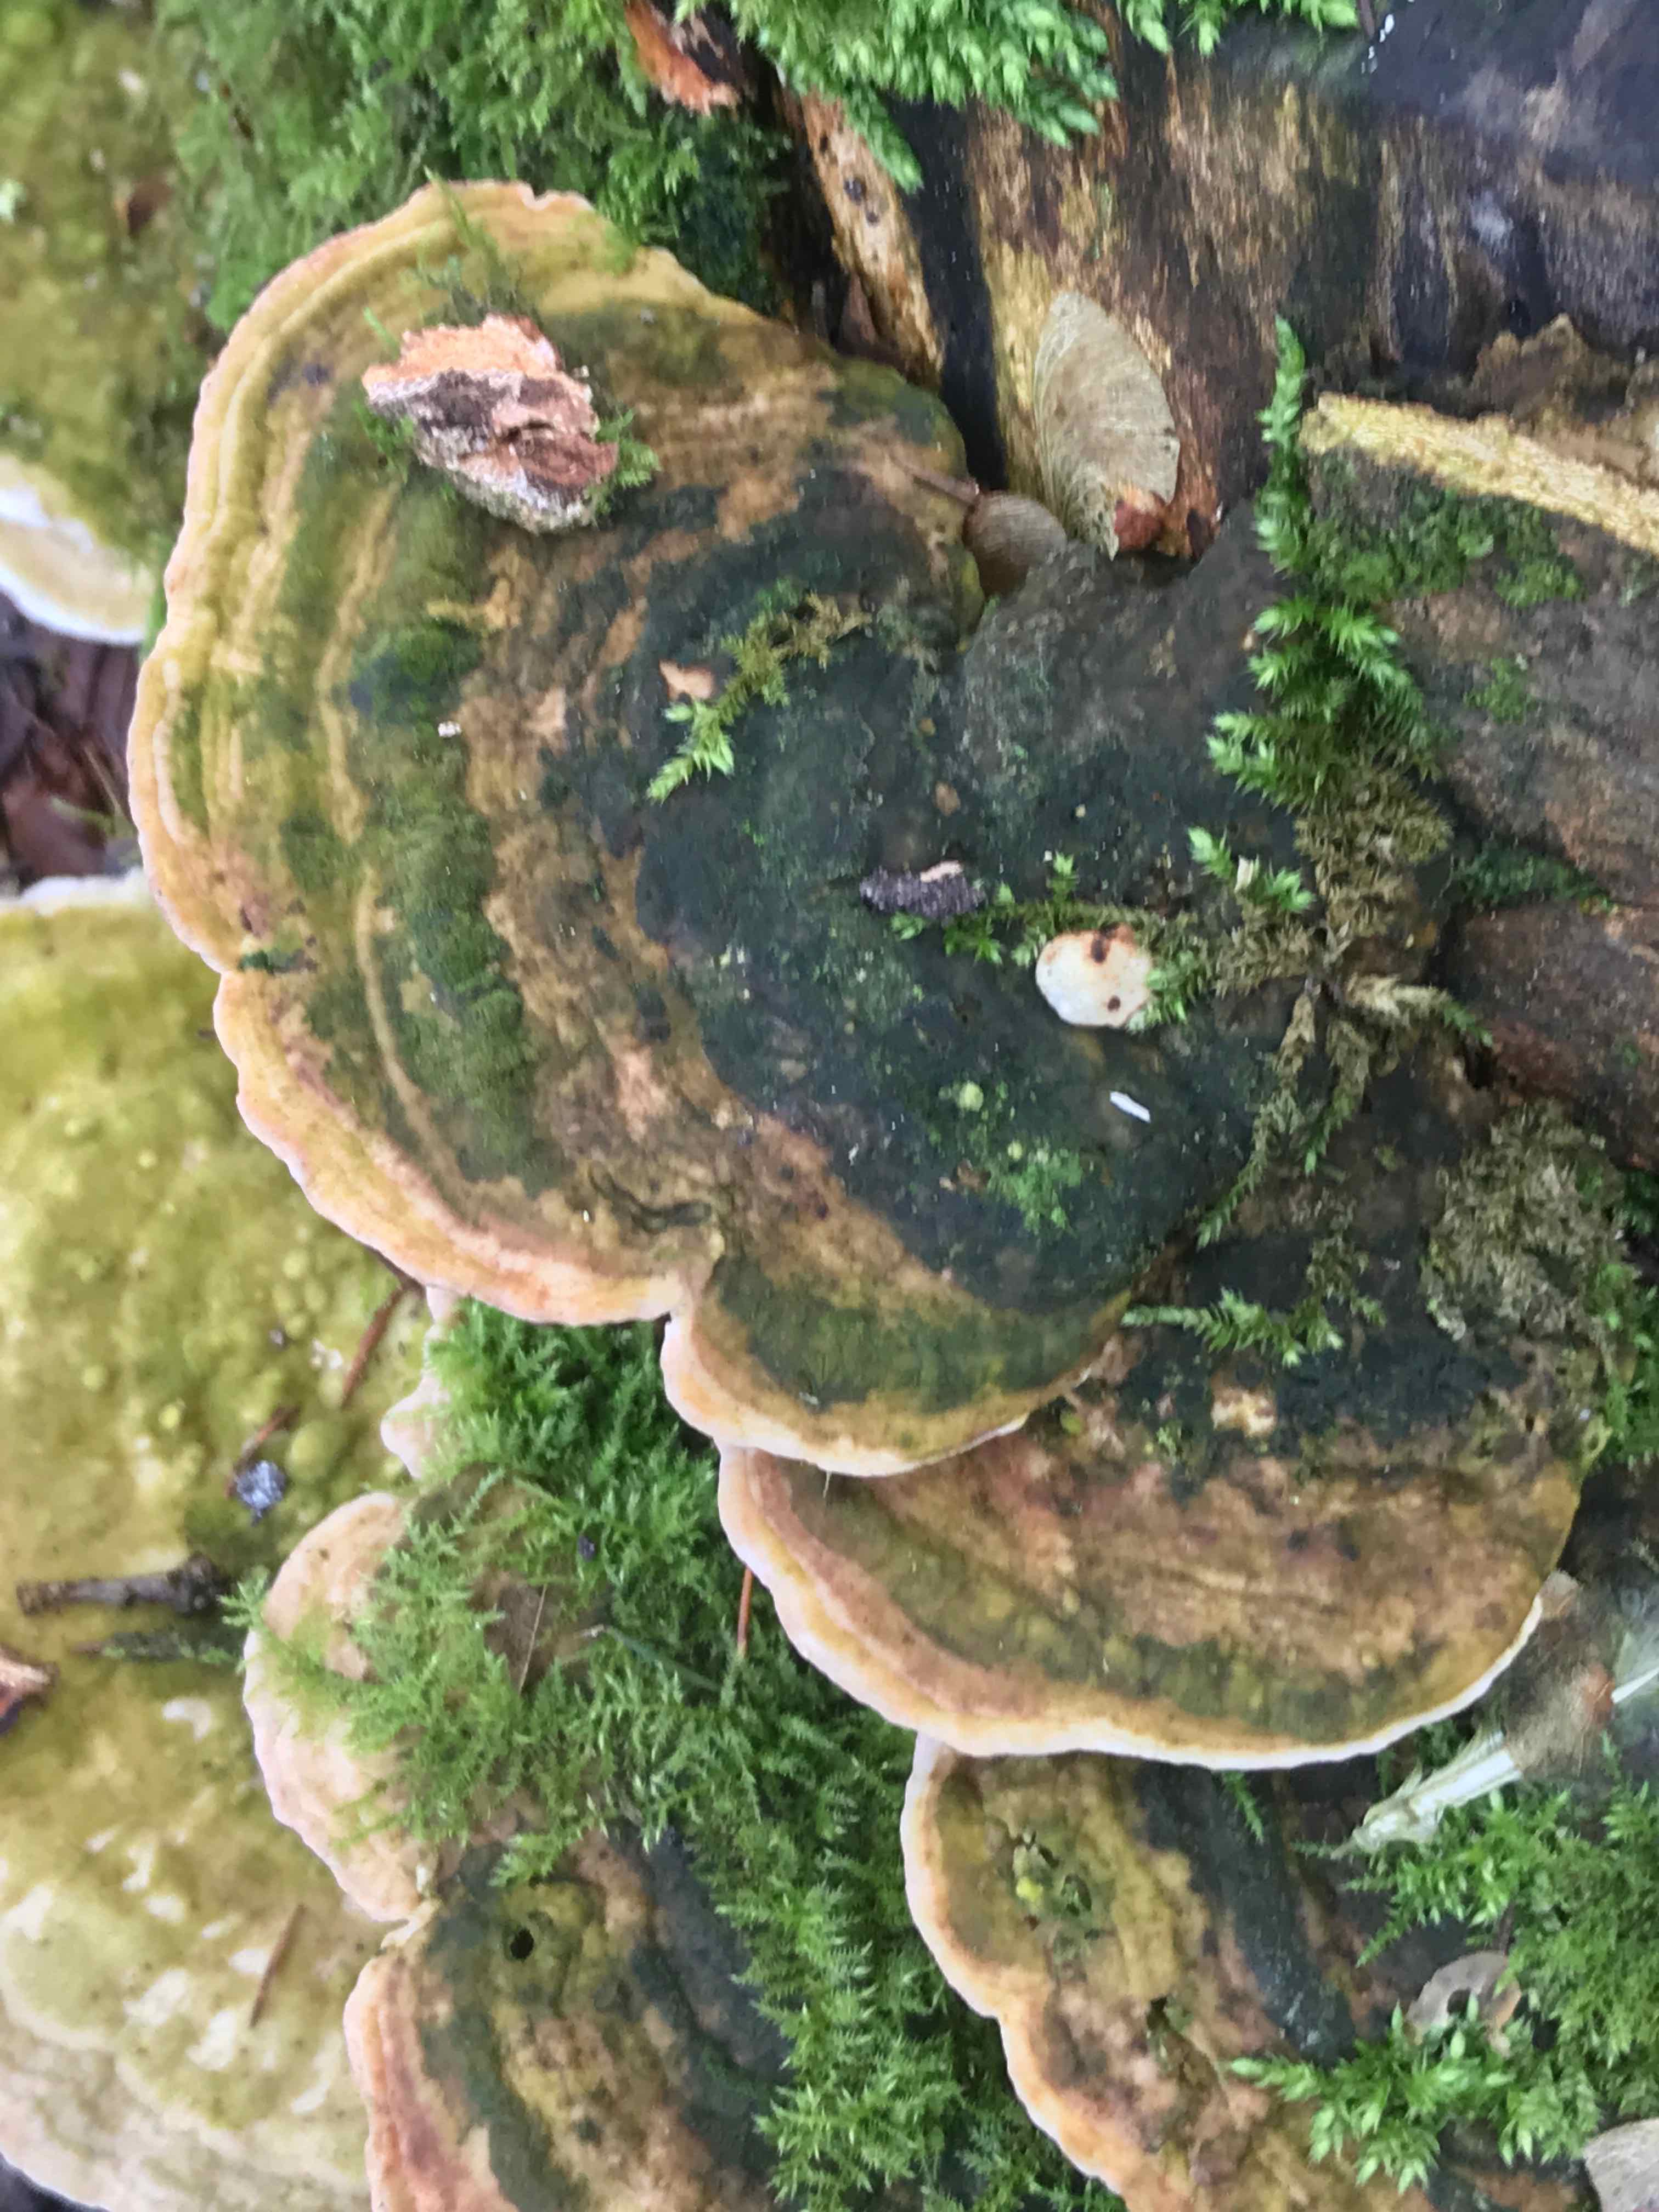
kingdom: Fungi
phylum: Basidiomycota
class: Agaricomycetes
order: Polyporales
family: Polyporaceae
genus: Trametes
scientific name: Trametes gibbosa
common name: puklet læderporesvamp
